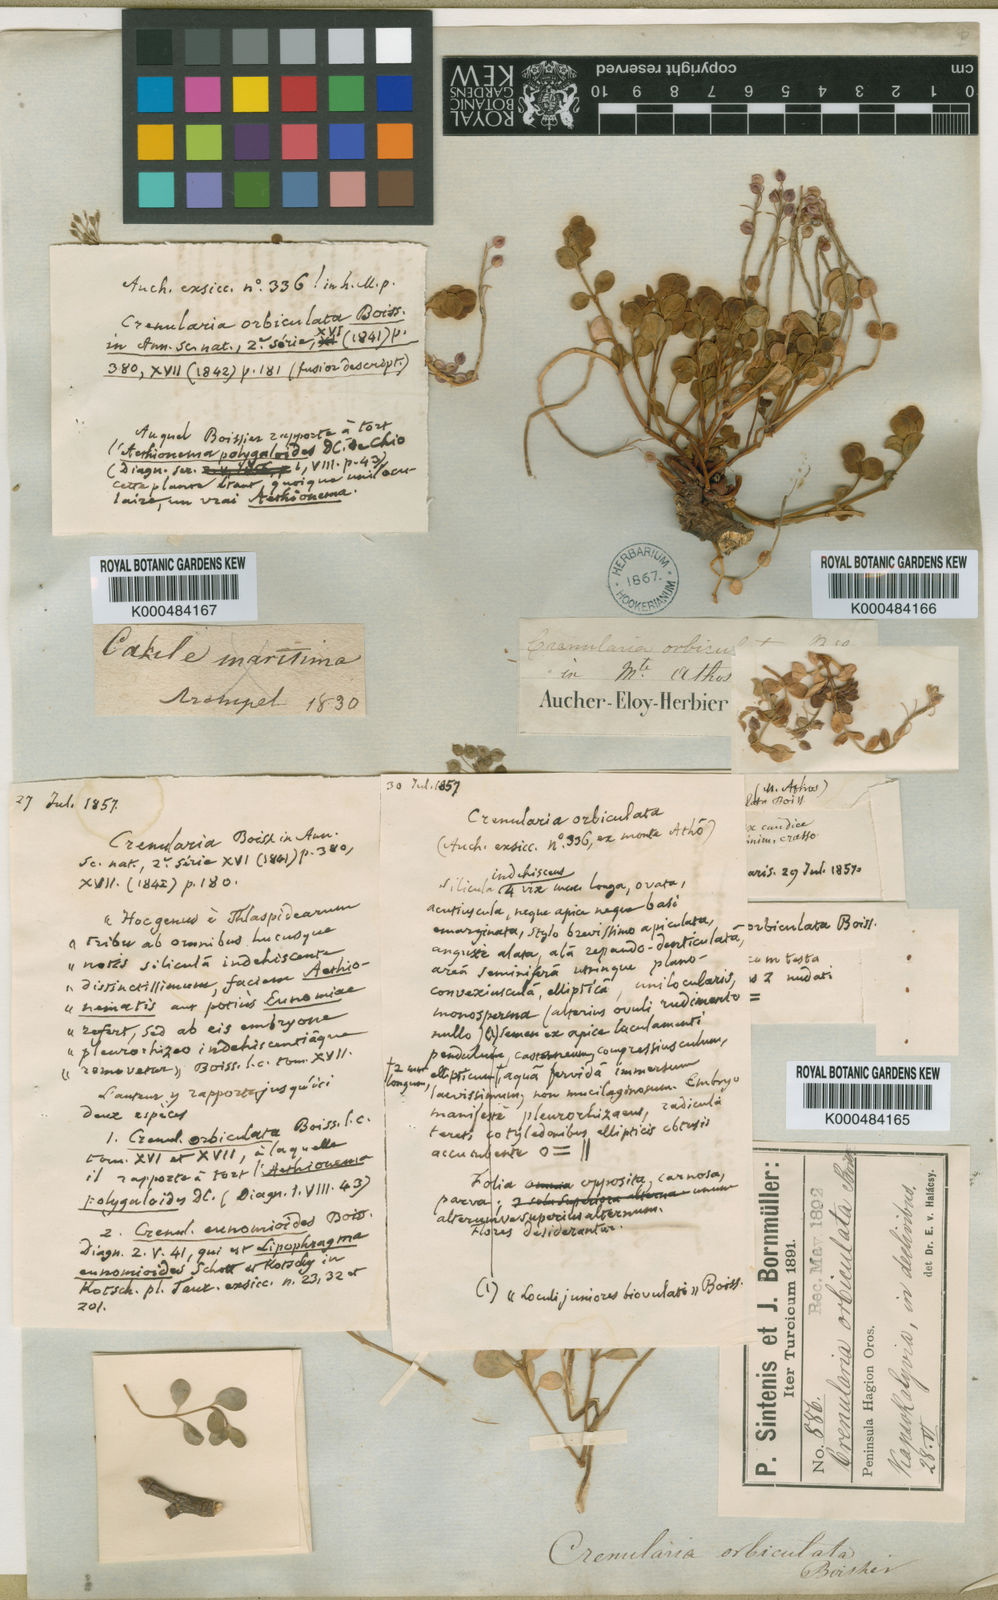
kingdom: Plantae
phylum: Tracheophyta
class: Magnoliopsida
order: Brassicales
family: Brassicaceae
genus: Aethionema
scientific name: Aethionema orbiculatum
